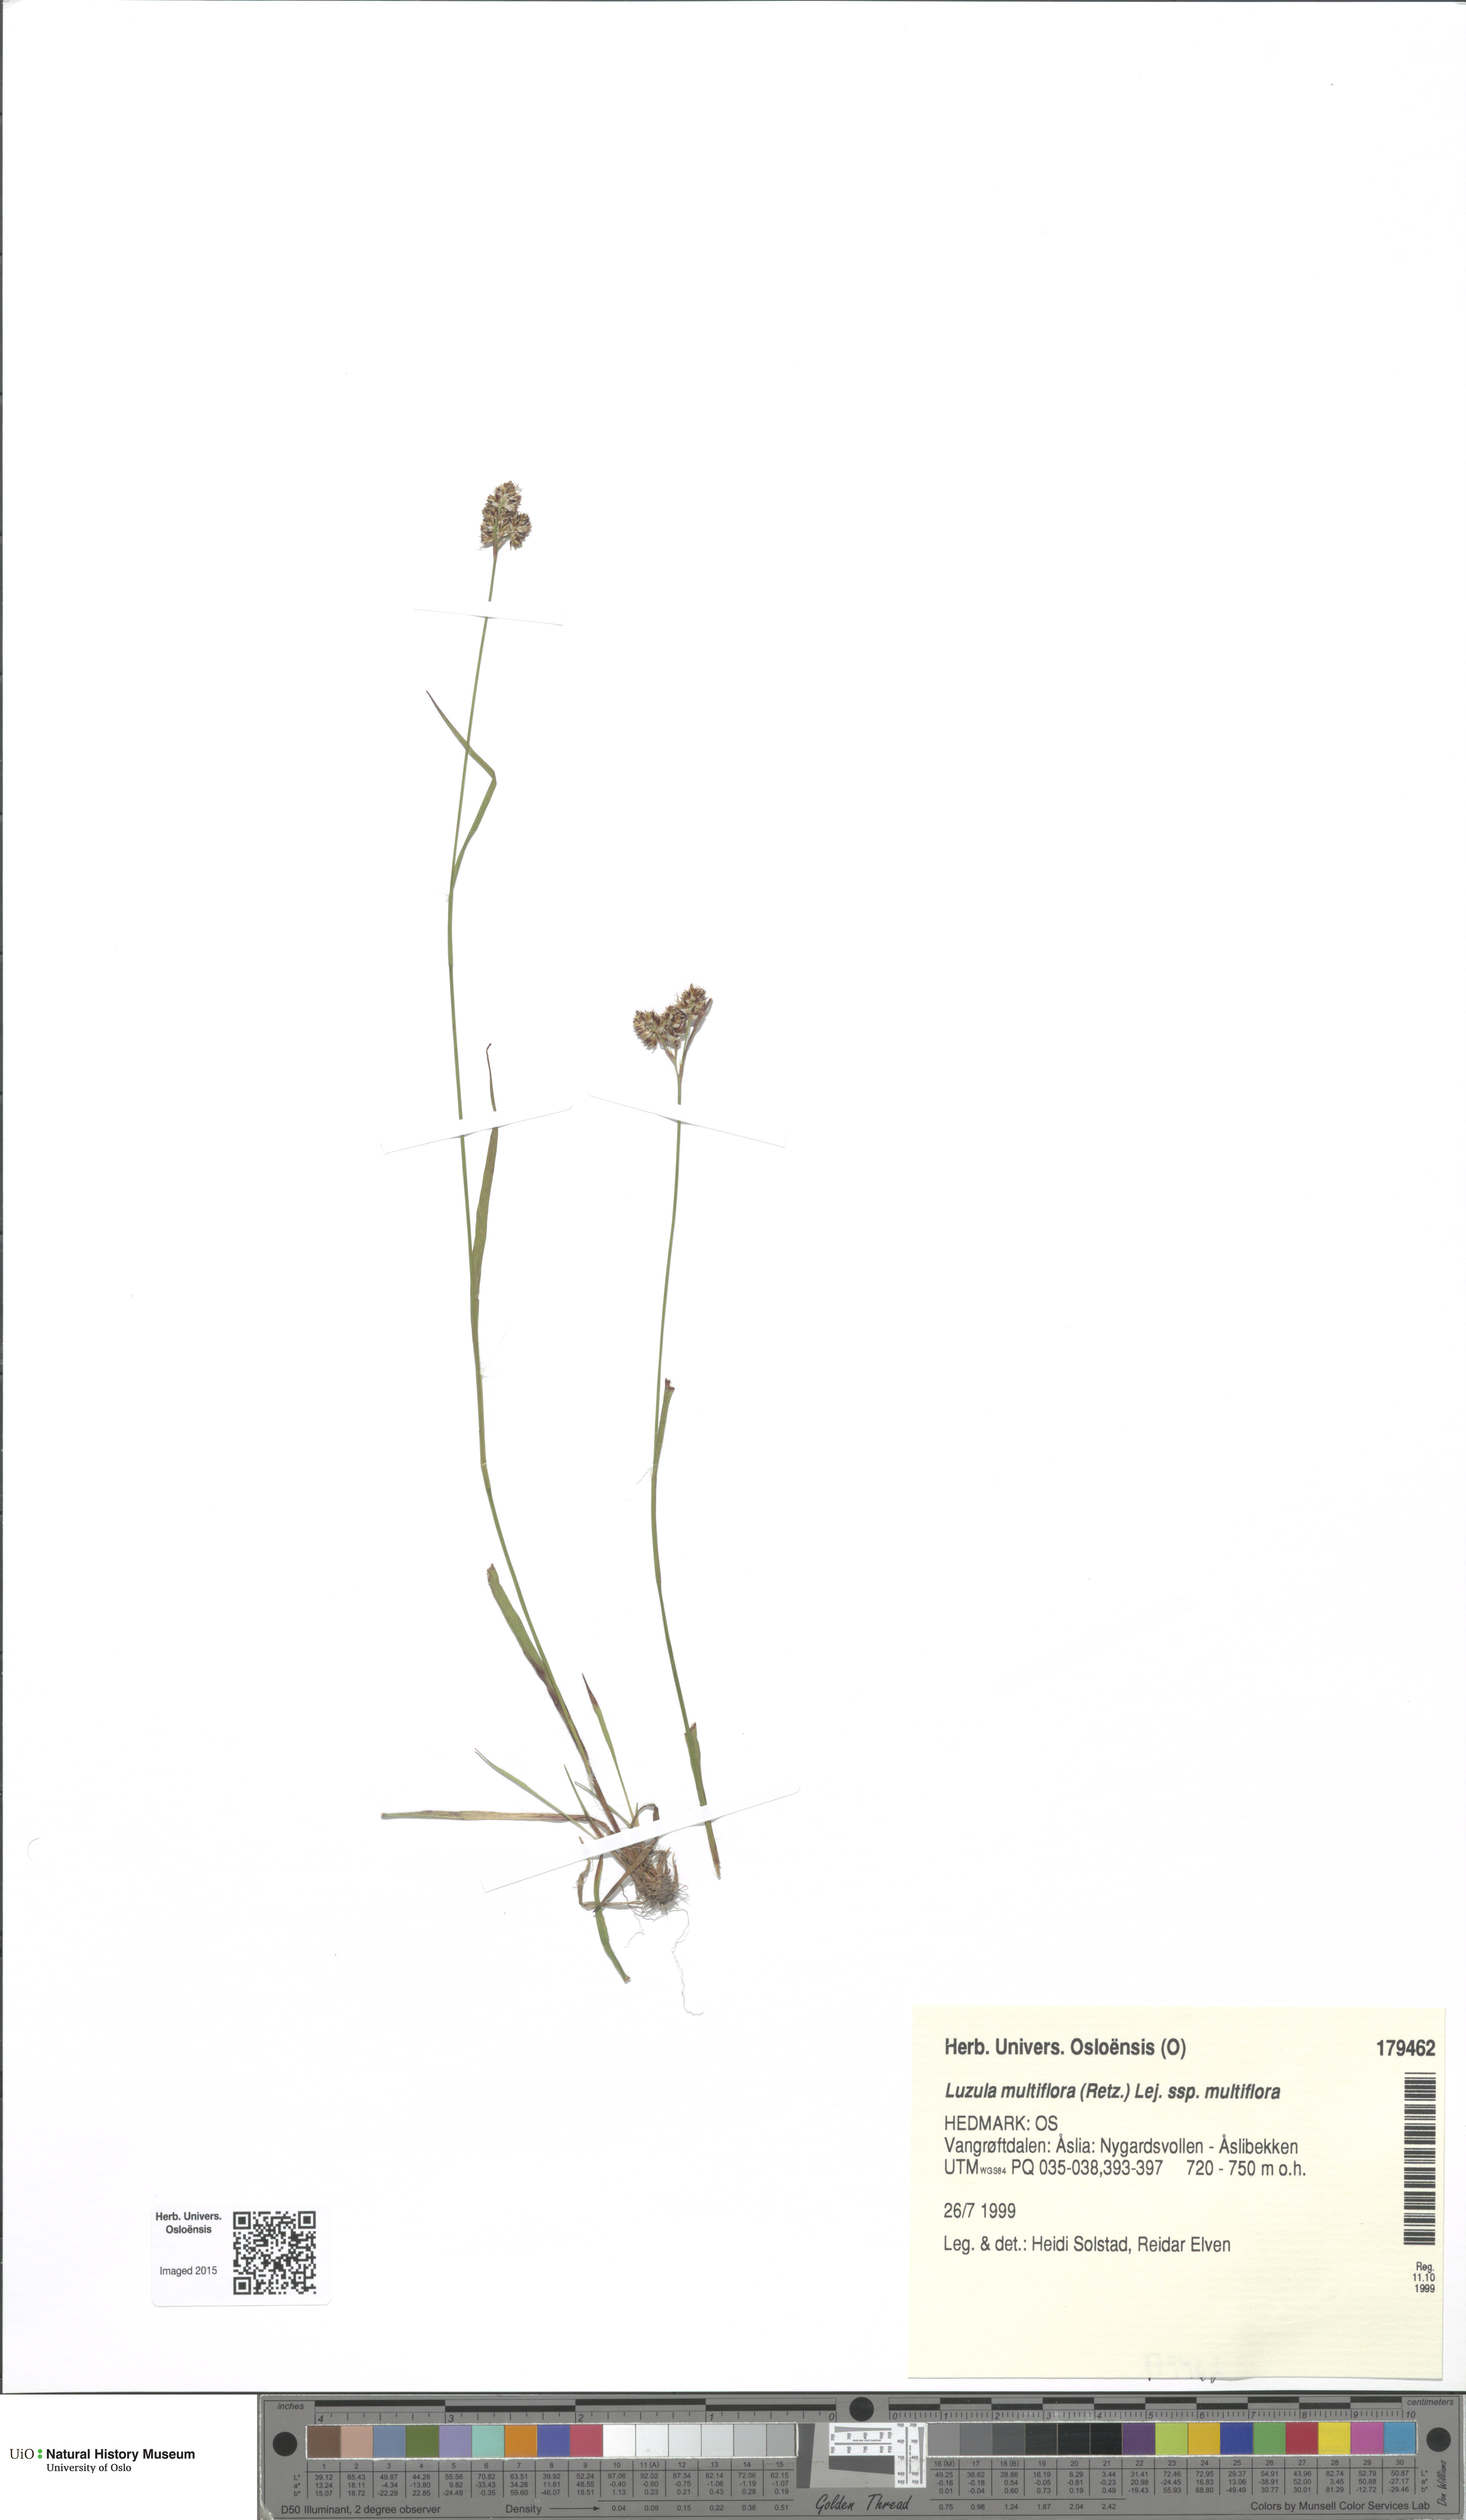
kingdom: Plantae
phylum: Tracheophyta
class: Liliopsida
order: Poales
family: Juncaceae
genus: Luzula
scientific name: Luzula multiflora
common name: Heath wood-rush
